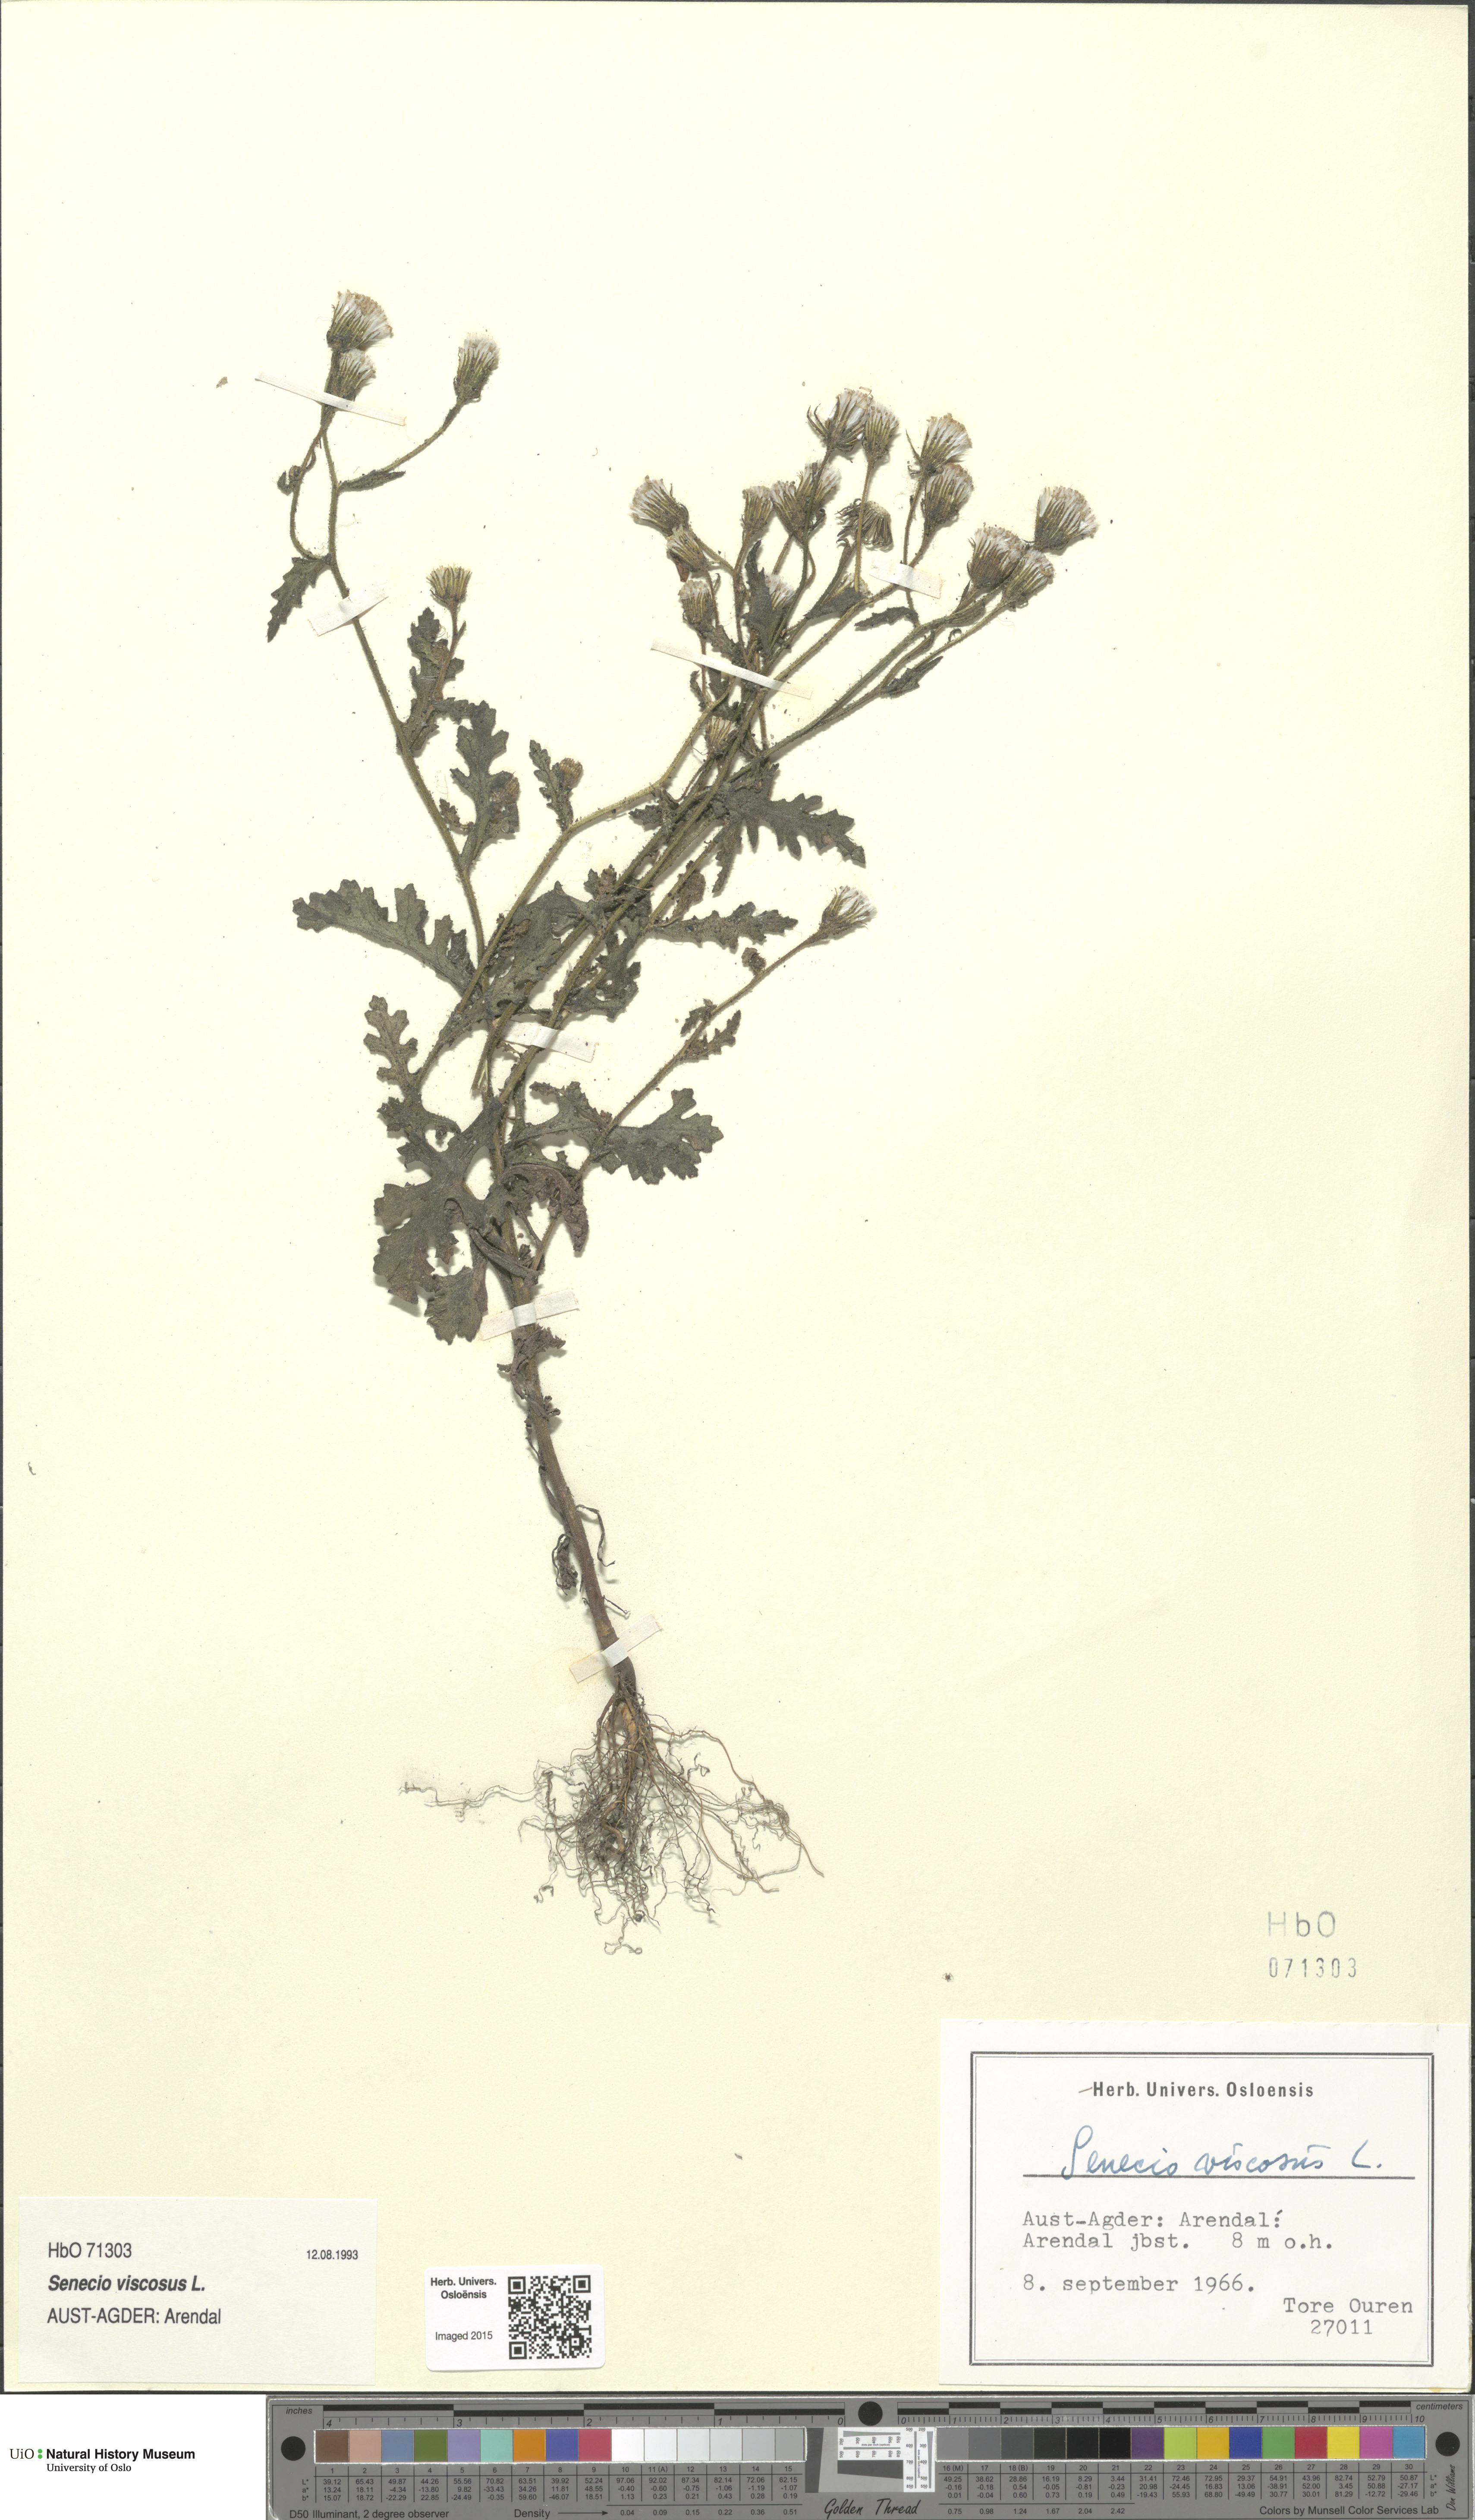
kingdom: Plantae
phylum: Tracheophyta
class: Magnoliopsida
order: Asterales
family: Asteraceae
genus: Senecio
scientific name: Senecio viscosus
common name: Sticky groundsel
